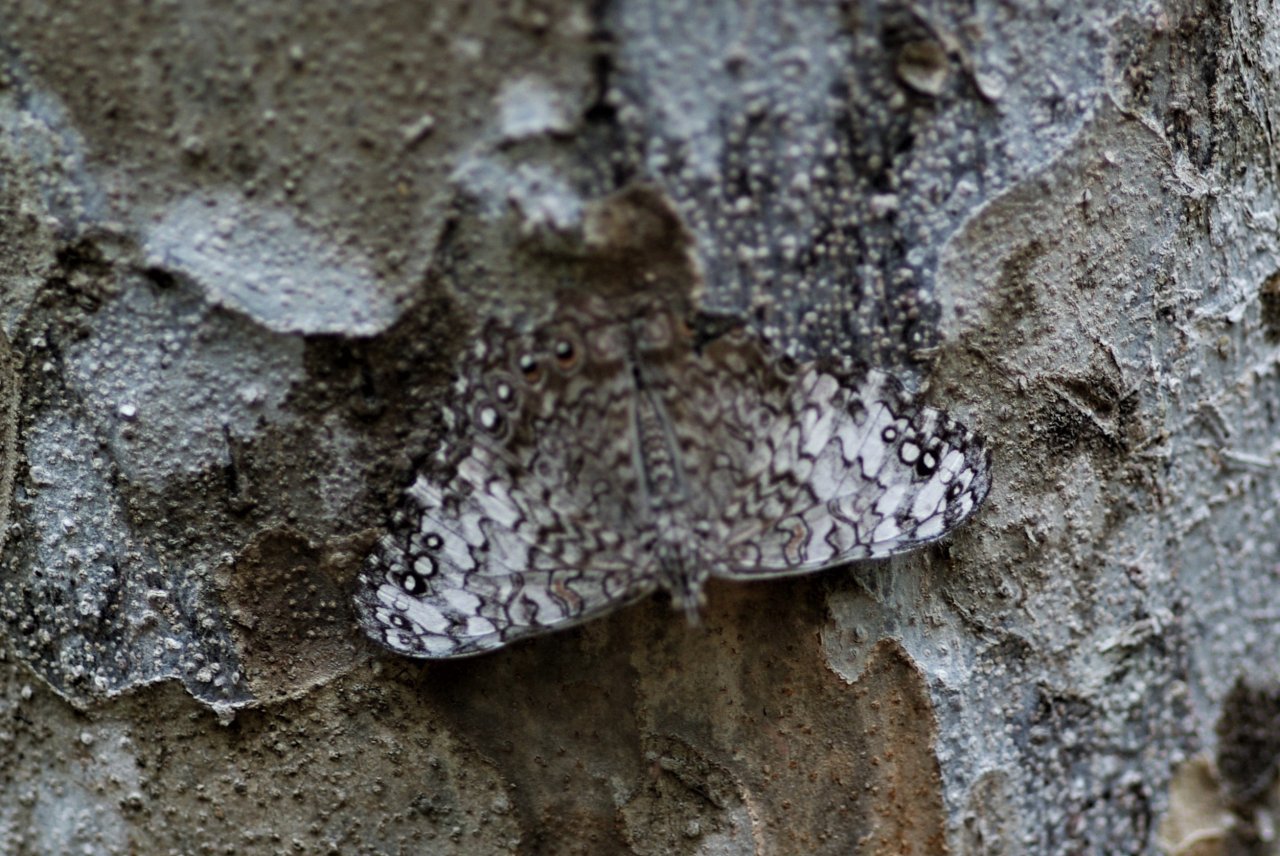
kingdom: Animalia
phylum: Arthropoda
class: Insecta
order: Lepidoptera
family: Nymphalidae
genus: Hamadryas
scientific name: Hamadryas februa
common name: Pale Cracker
